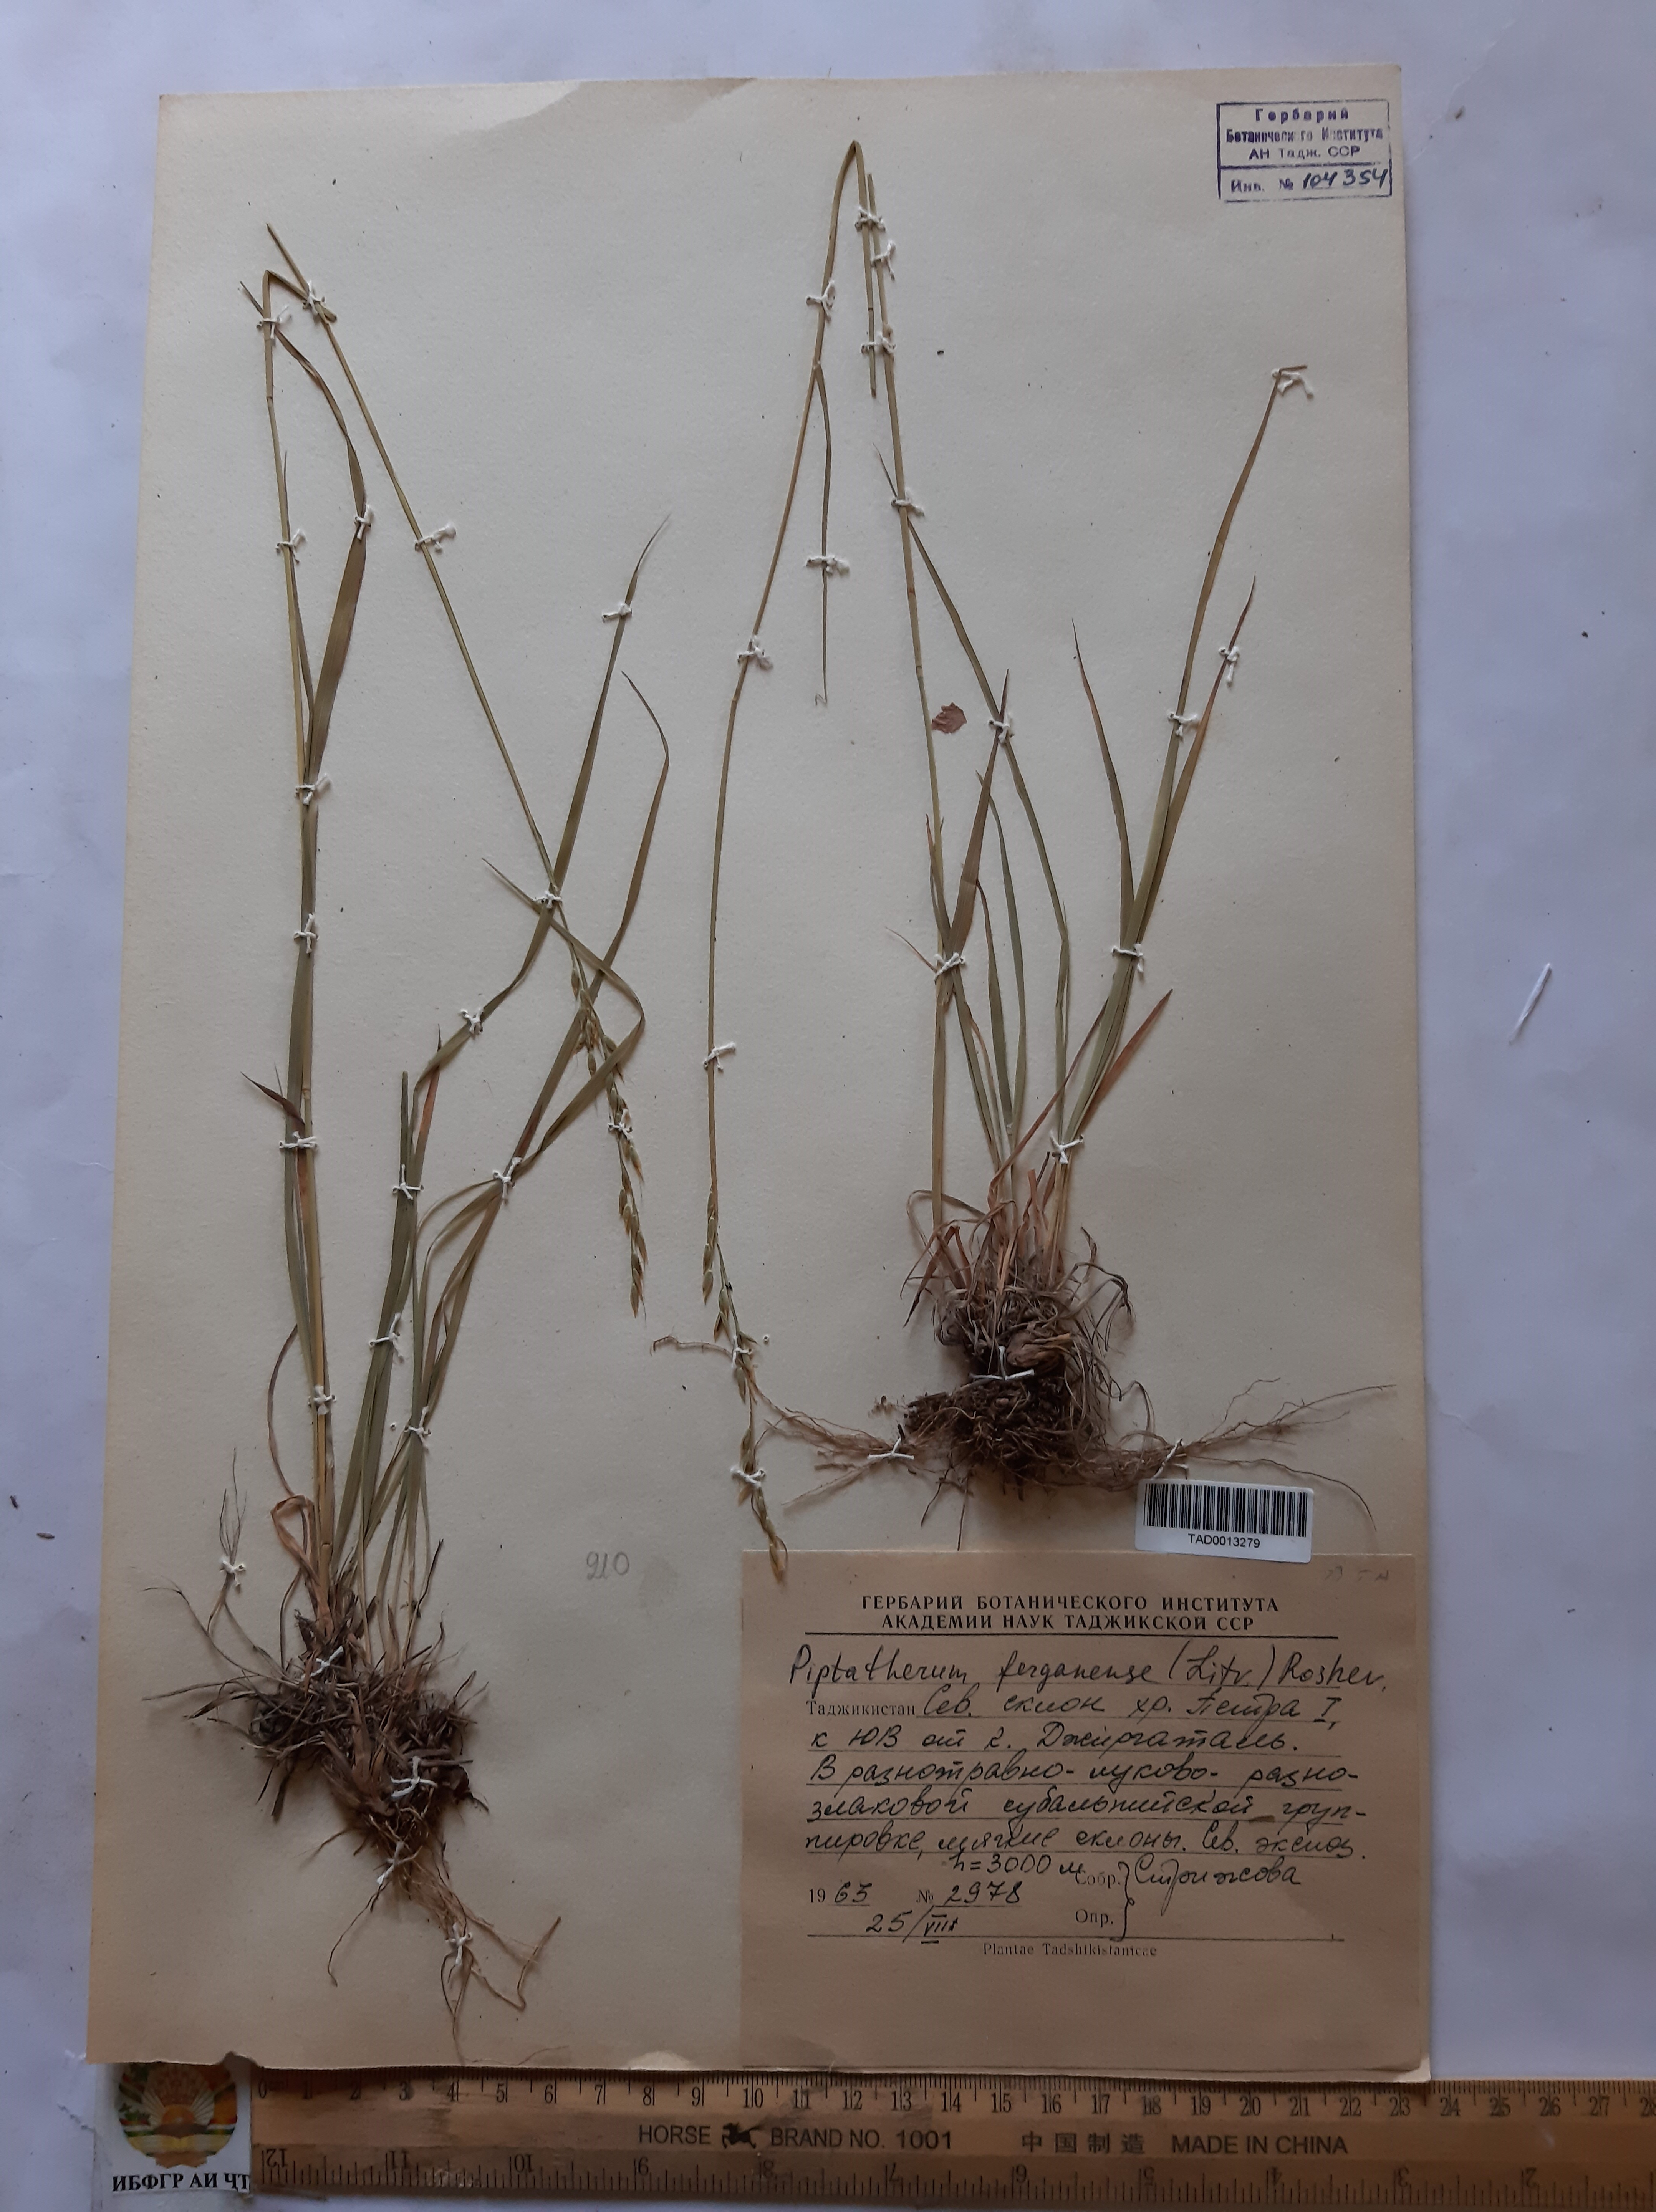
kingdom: Plantae
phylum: Tracheophyta
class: Liliopsida
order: Poales
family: Poaceae
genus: Piptatherum
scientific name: Piptatherum ferganense
